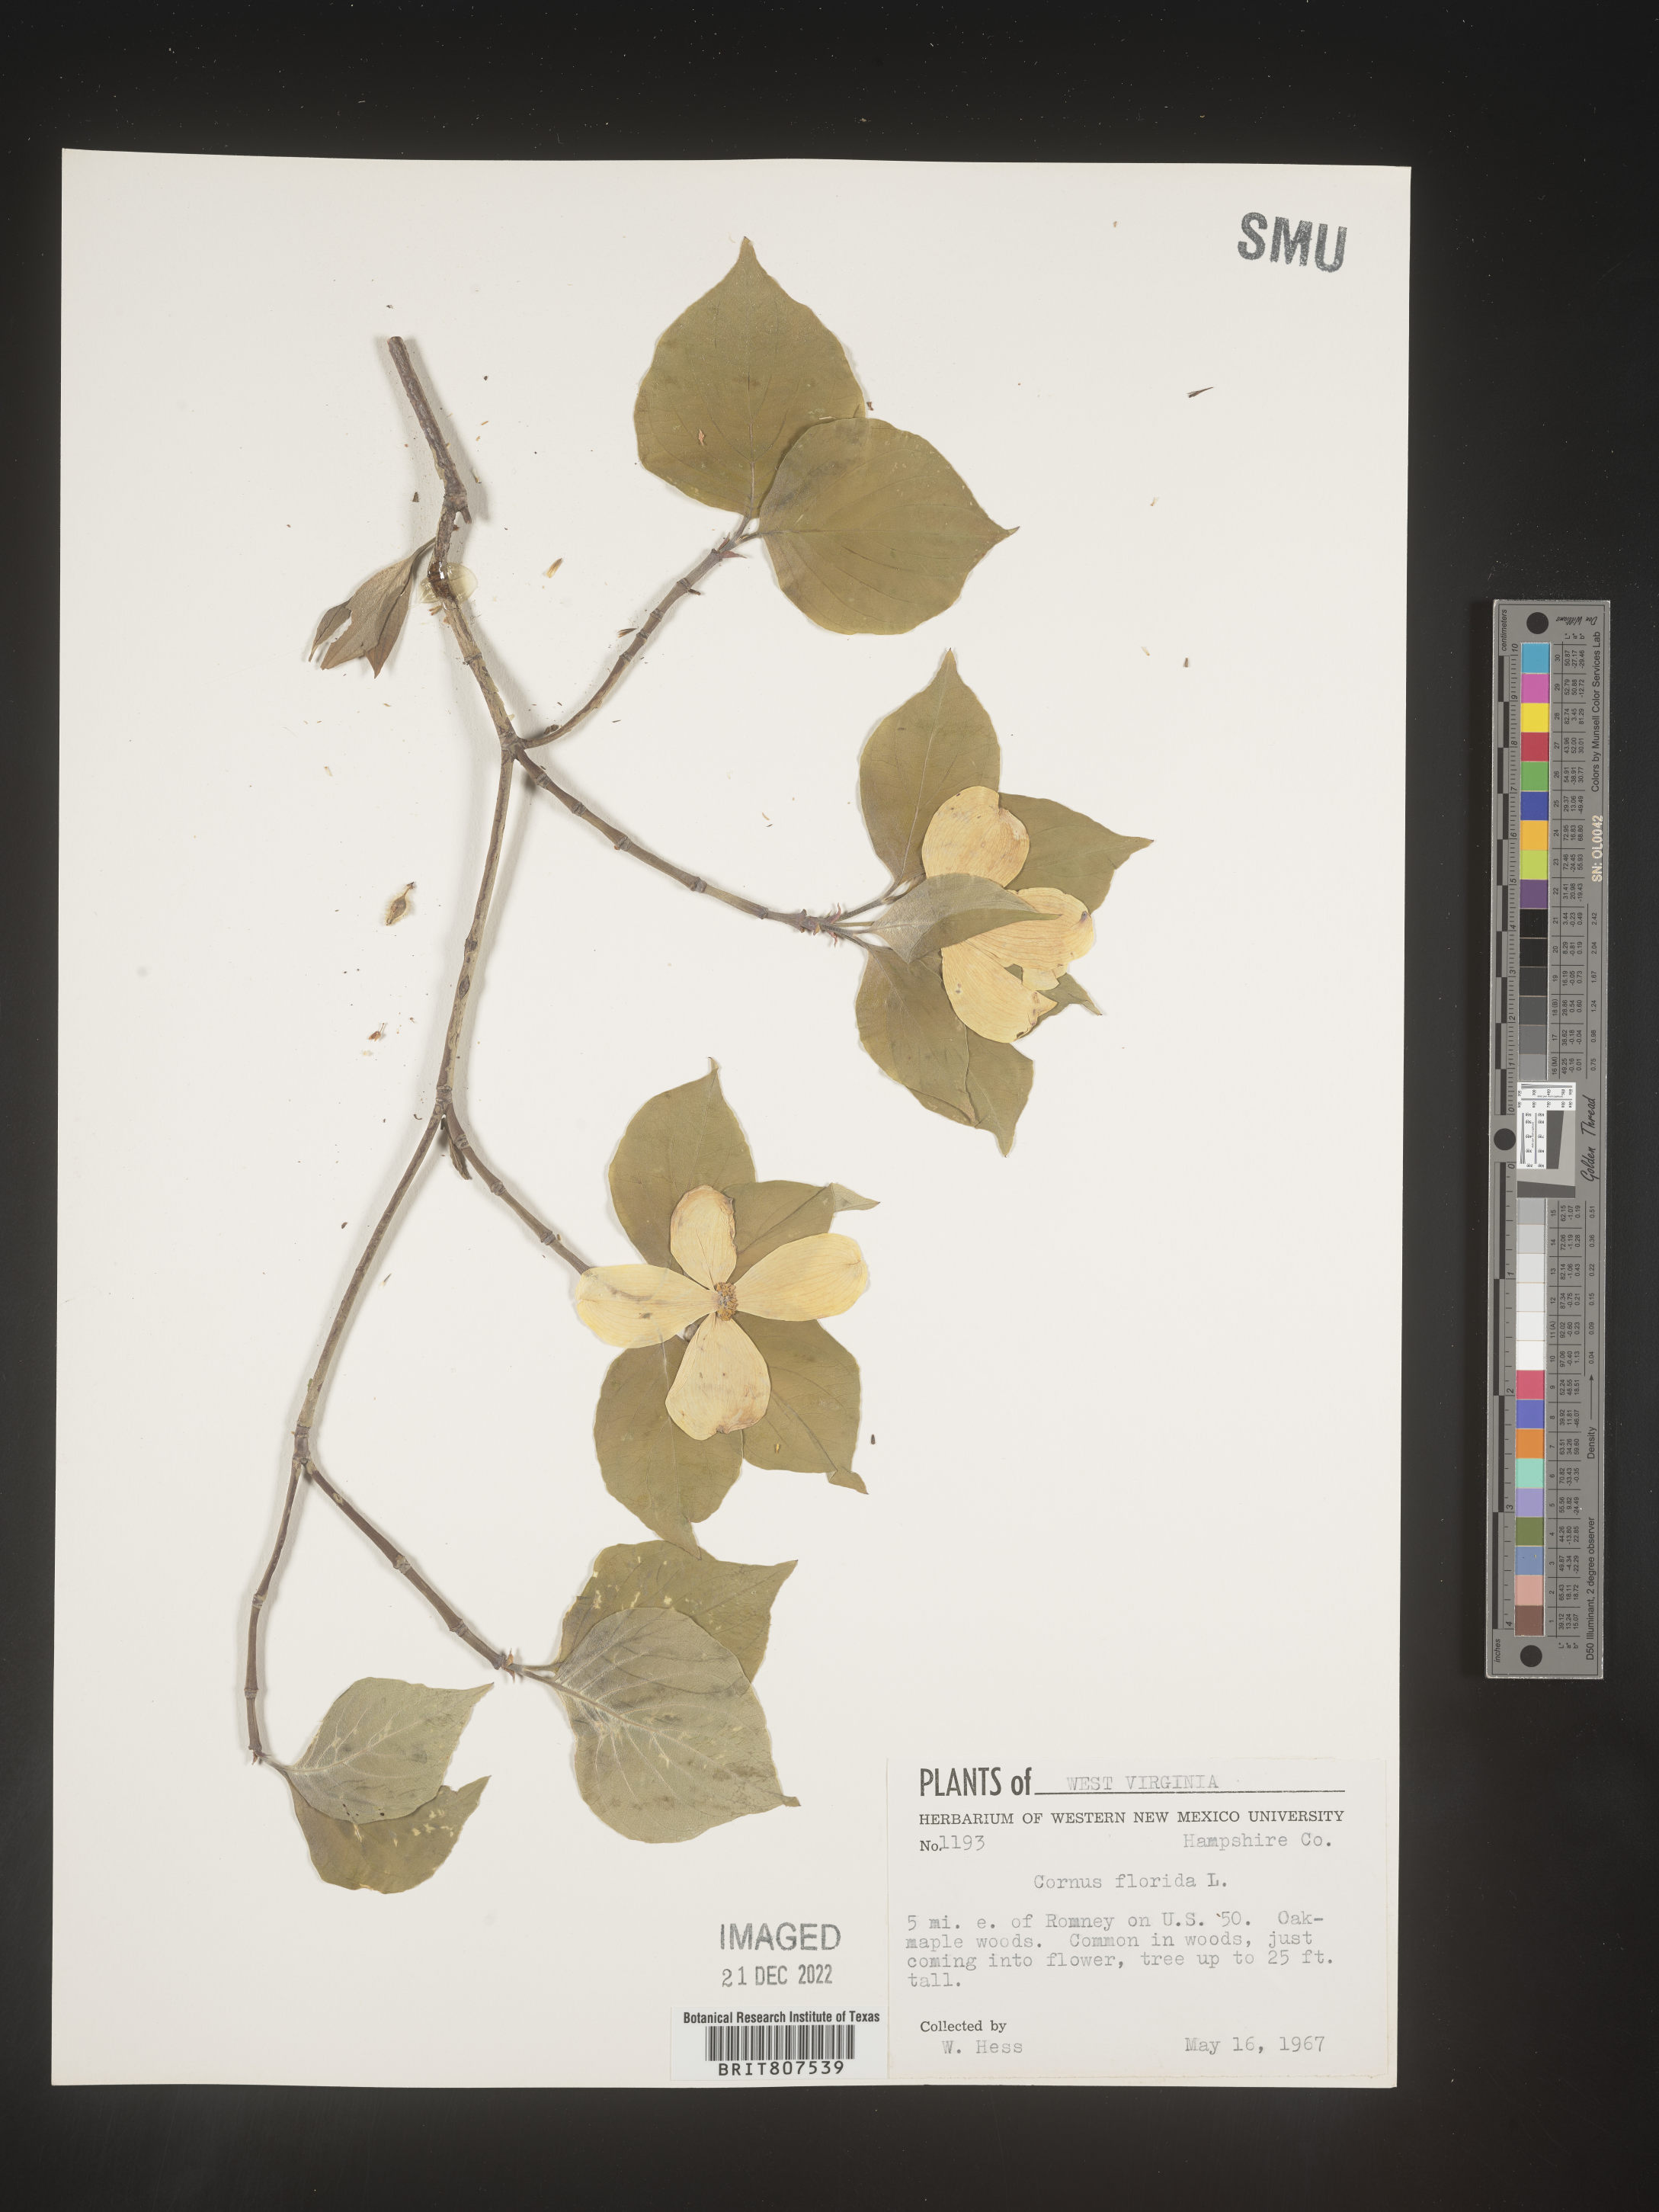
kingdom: Plantae
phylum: Tracheophyta
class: Magnoliopsida
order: Cornales
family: Cornaceae
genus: Cornus
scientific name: Cornus florida
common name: Flowering dogwood
